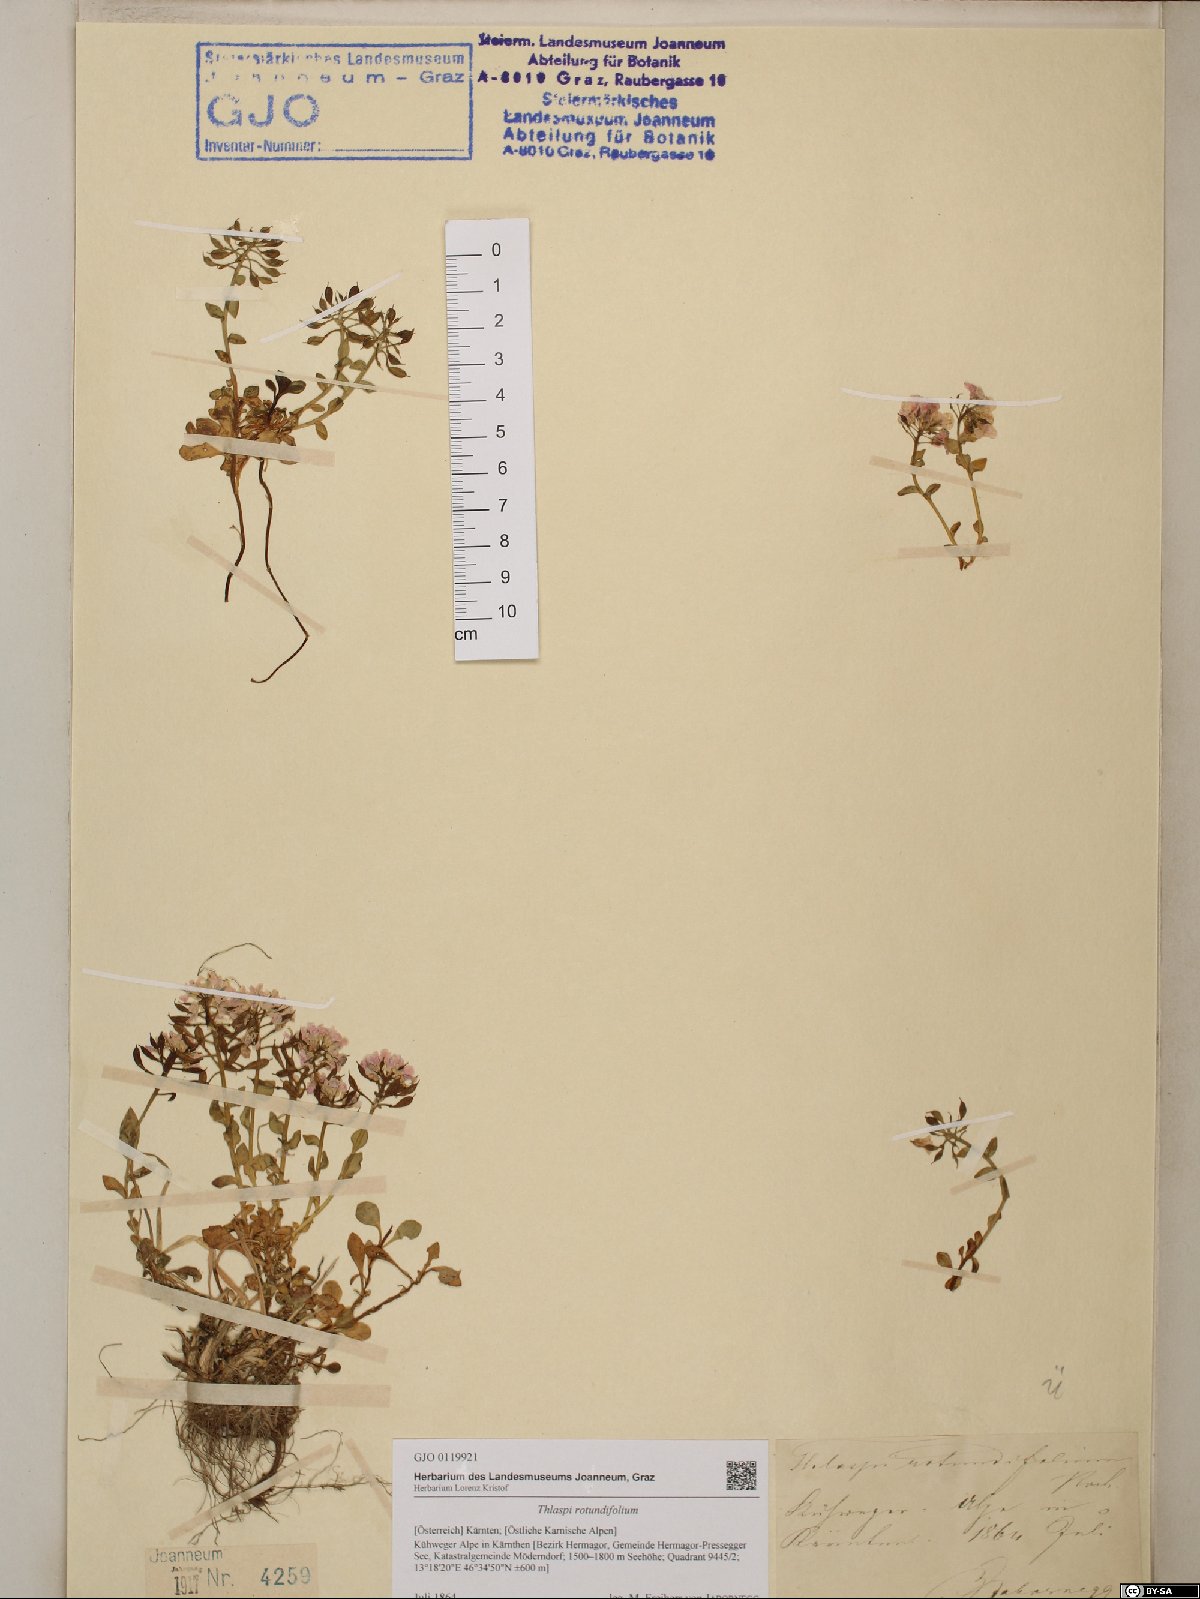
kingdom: Plantae
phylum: Tracheophyta
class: Magnoliopsida
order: Brassicales
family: Brassicaceae
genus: Noccaea
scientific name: Noccaea rotundifolia
